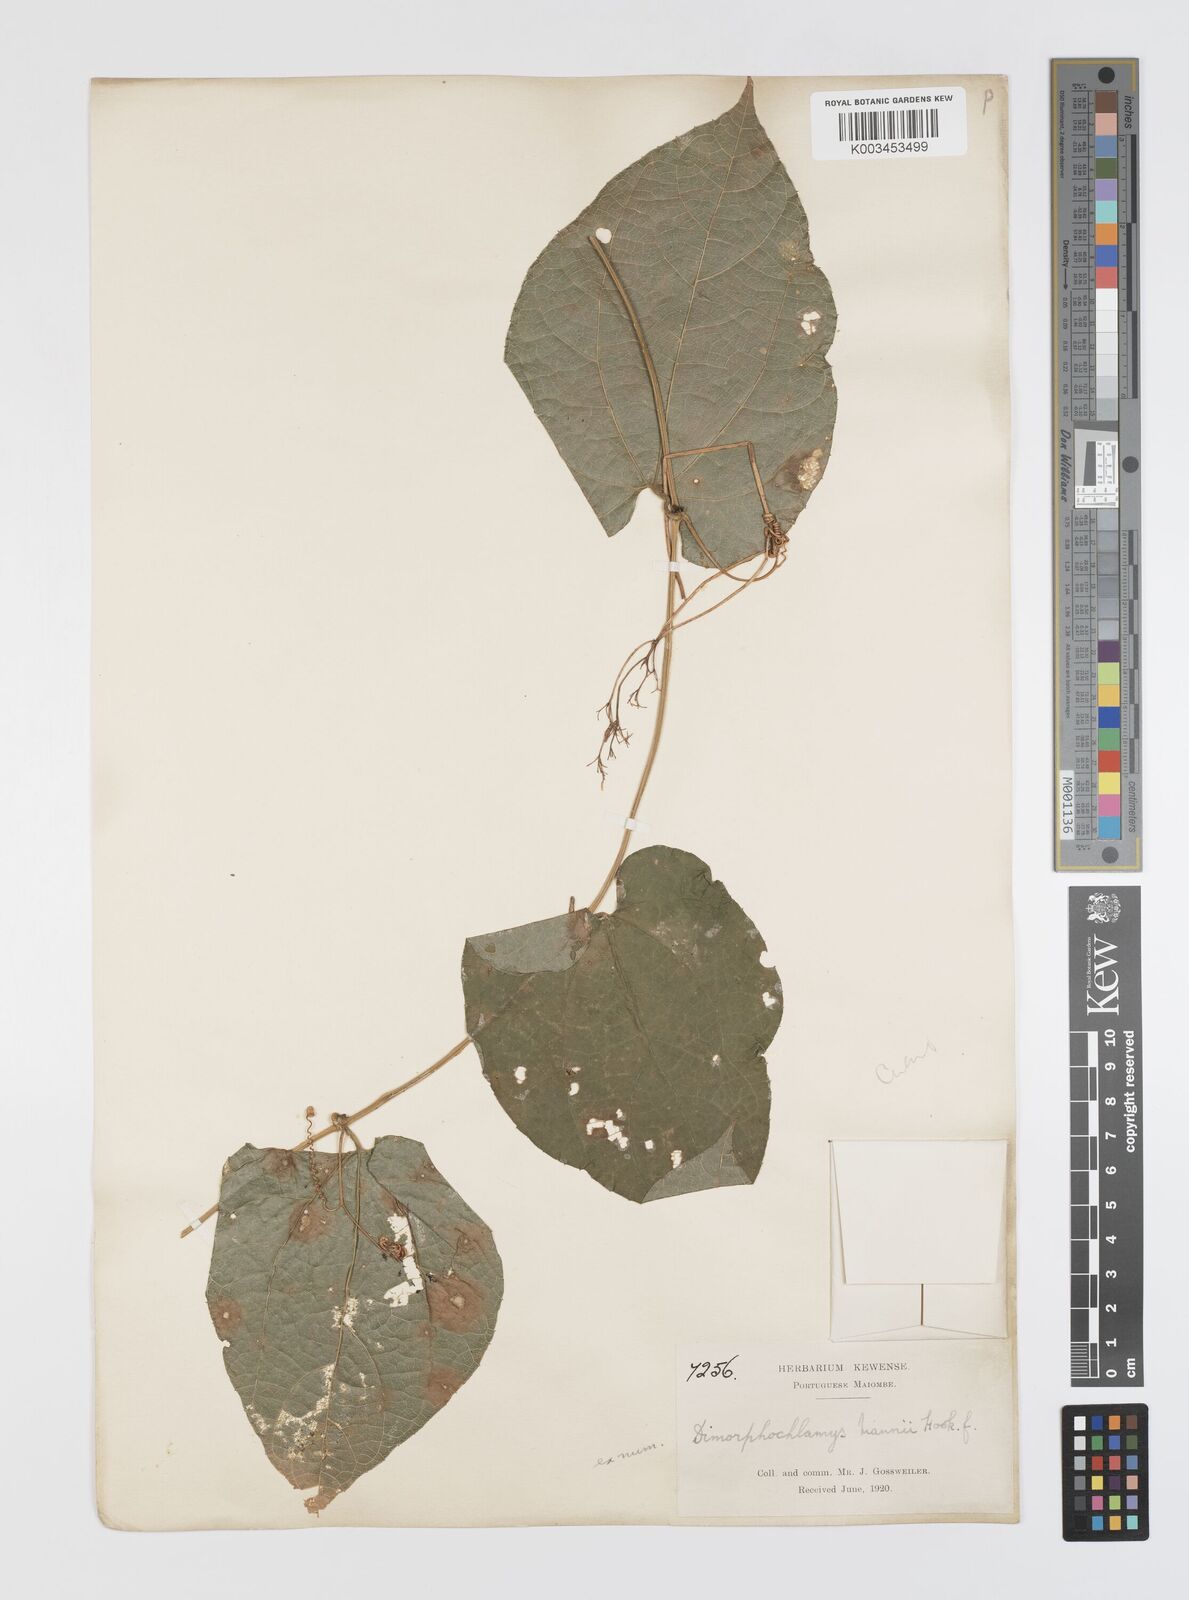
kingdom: Plantae
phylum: Tracheophyta
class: Magnoliopsida
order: Cucurbitales
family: Cucurbitaceae
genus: Momordica
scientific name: Momordica cabrae
